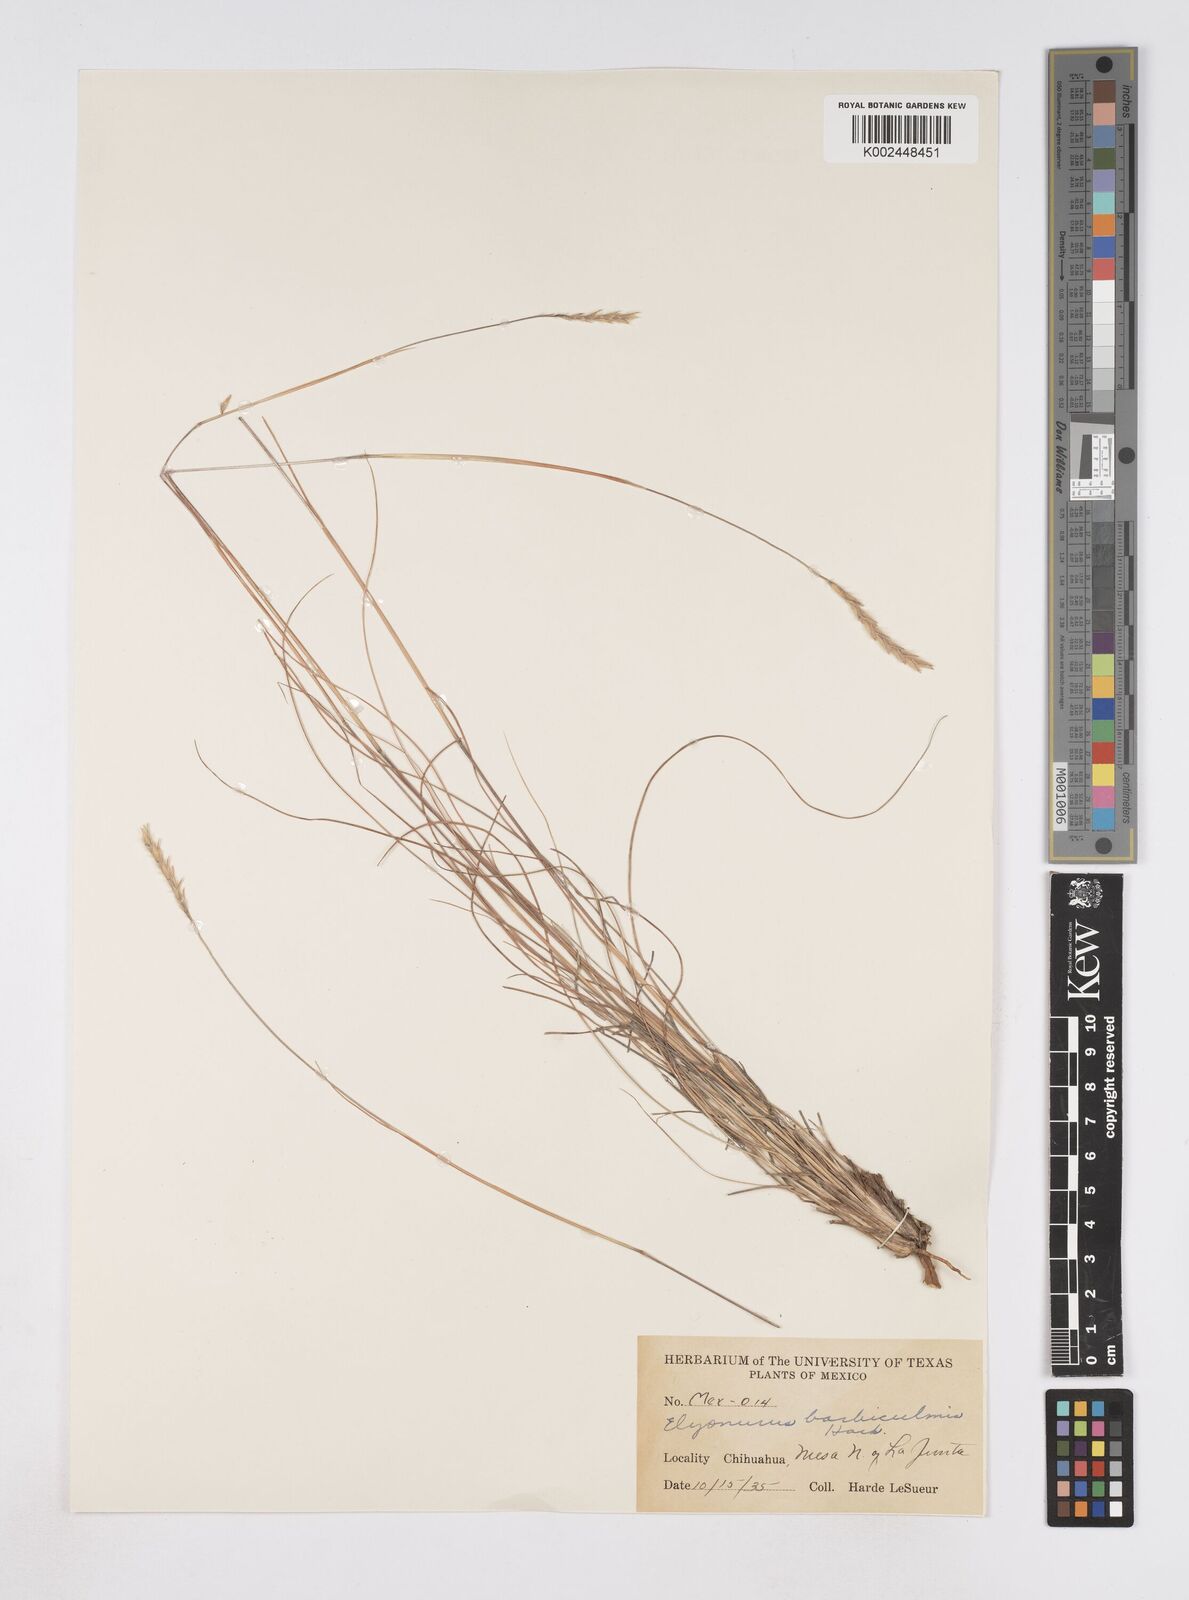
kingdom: Plantae
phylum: Tracheophyta
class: Liliopsida
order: Poales
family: Poaceae
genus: Elionurus
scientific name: Elionurus barbiculmis
